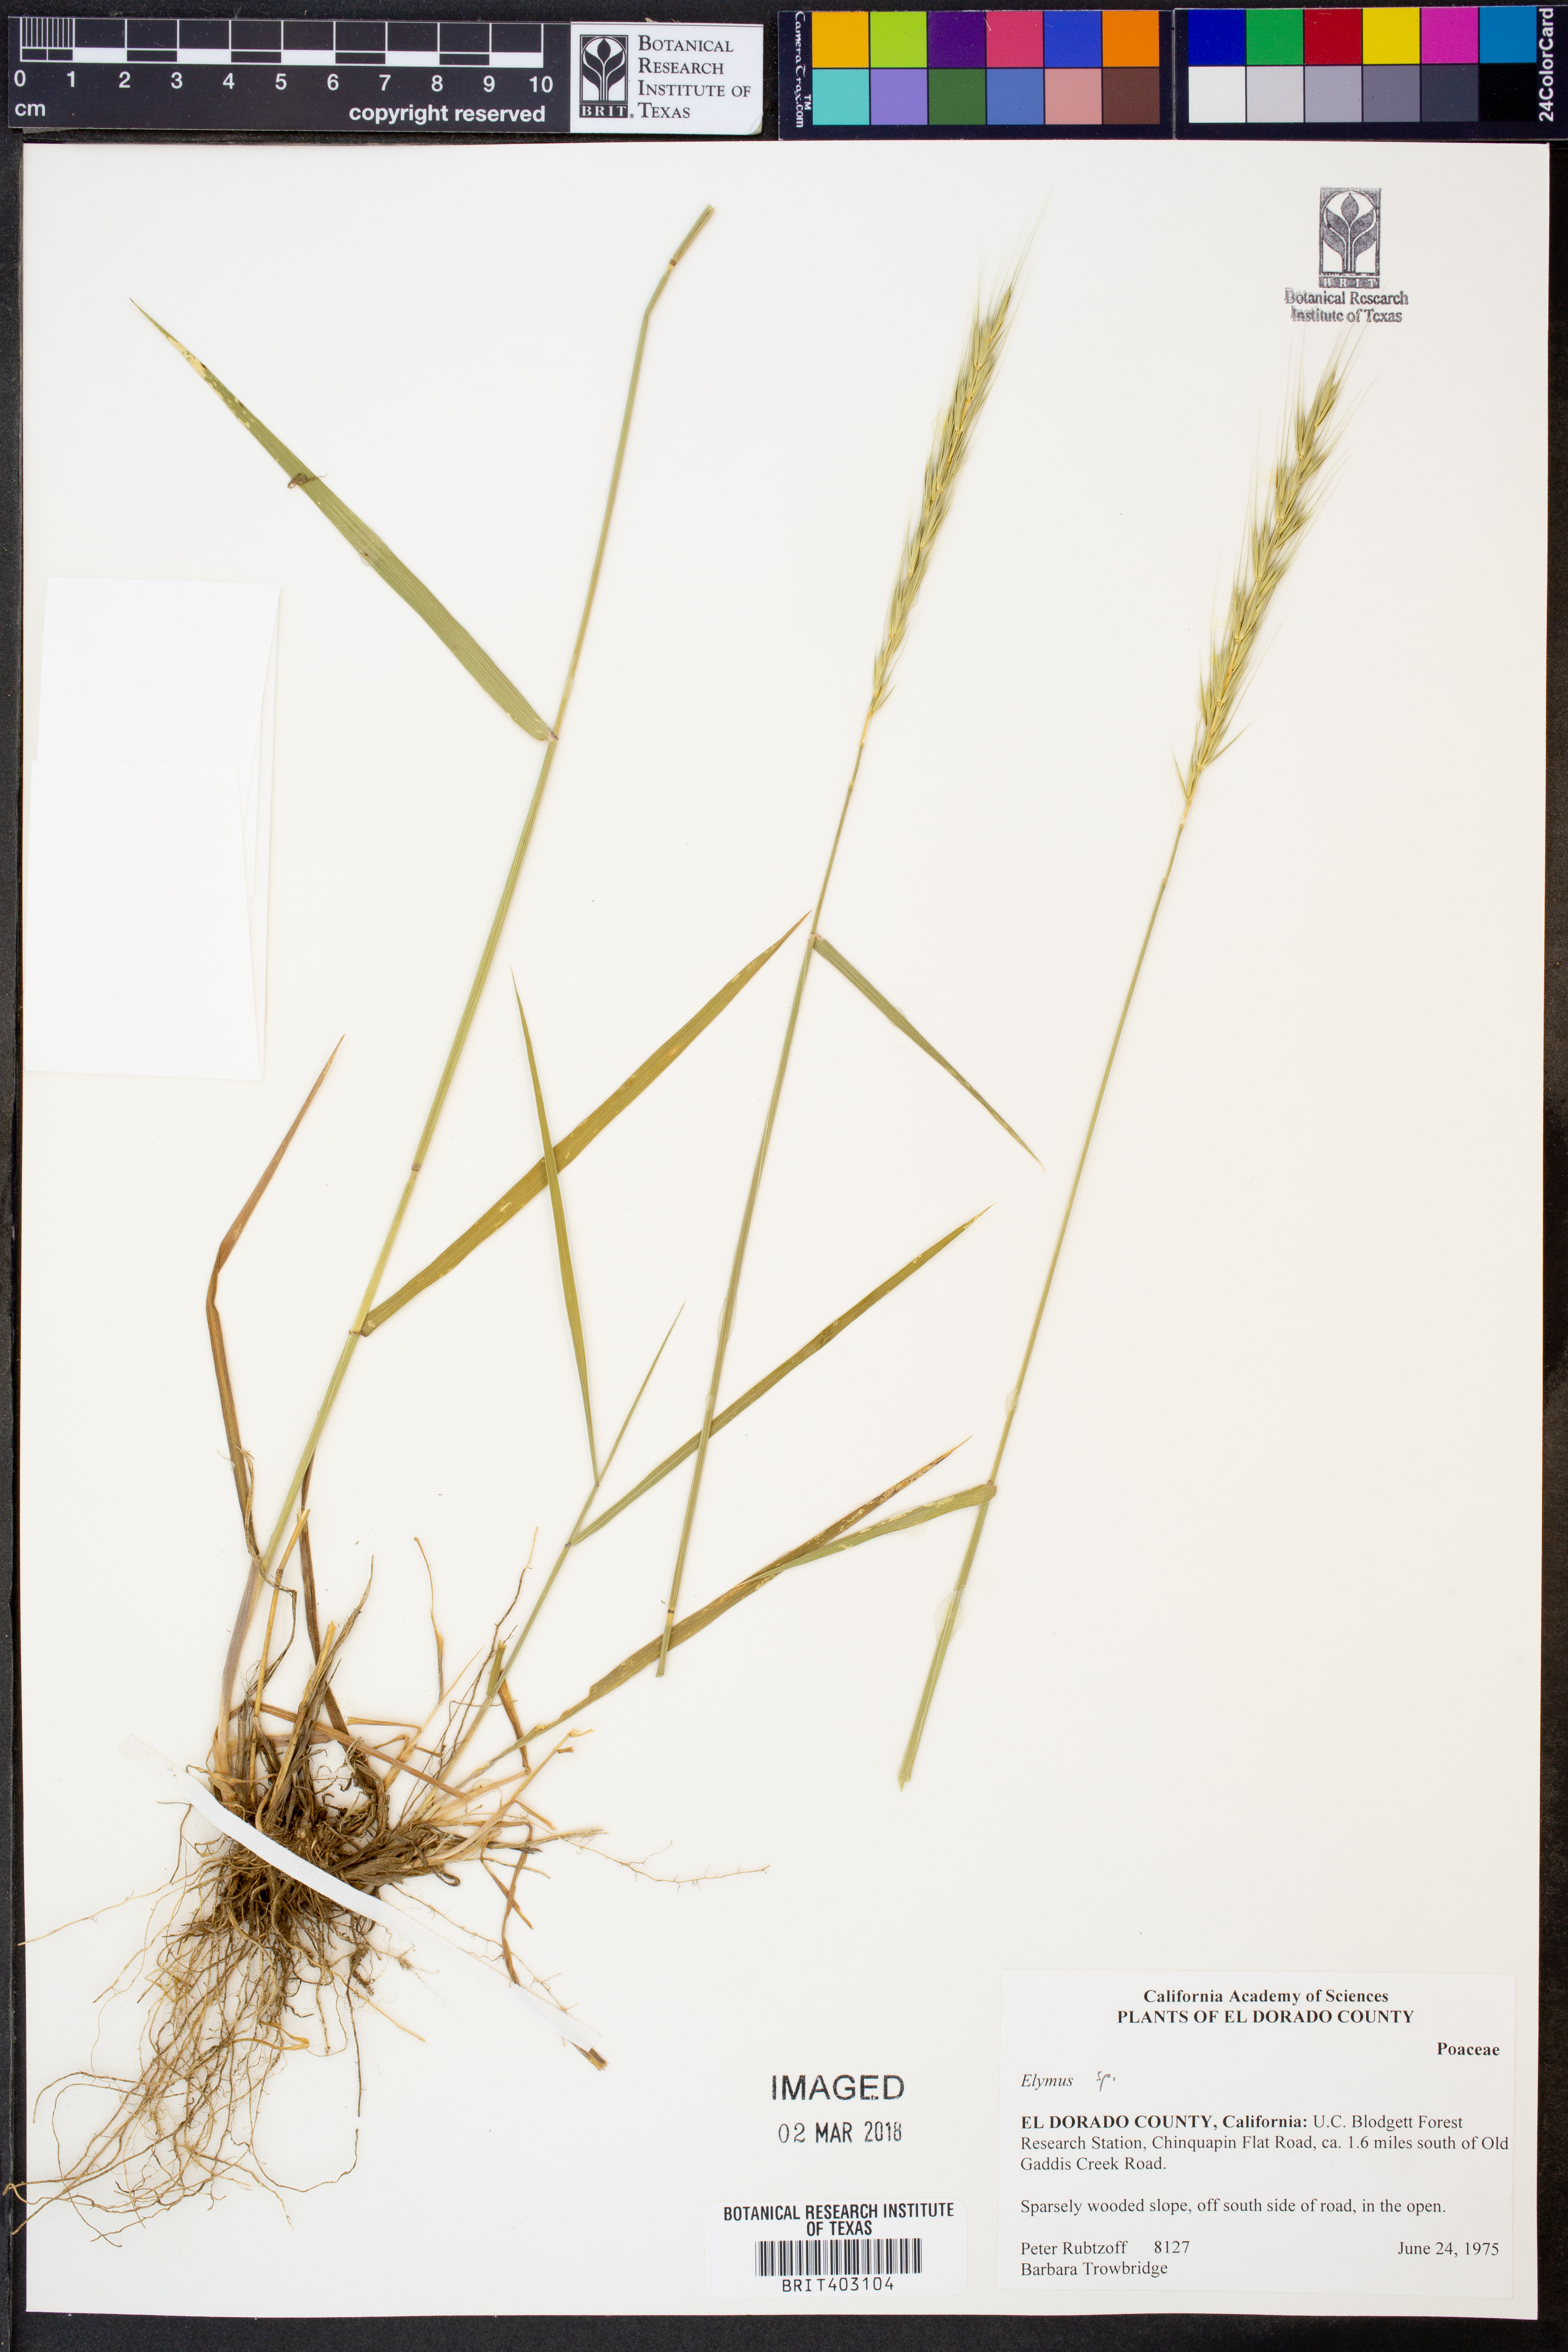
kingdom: Plantae
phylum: Tracheophyta
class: Liliopsida
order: Poales
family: Poaceae
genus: Elymus
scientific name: Elymus
